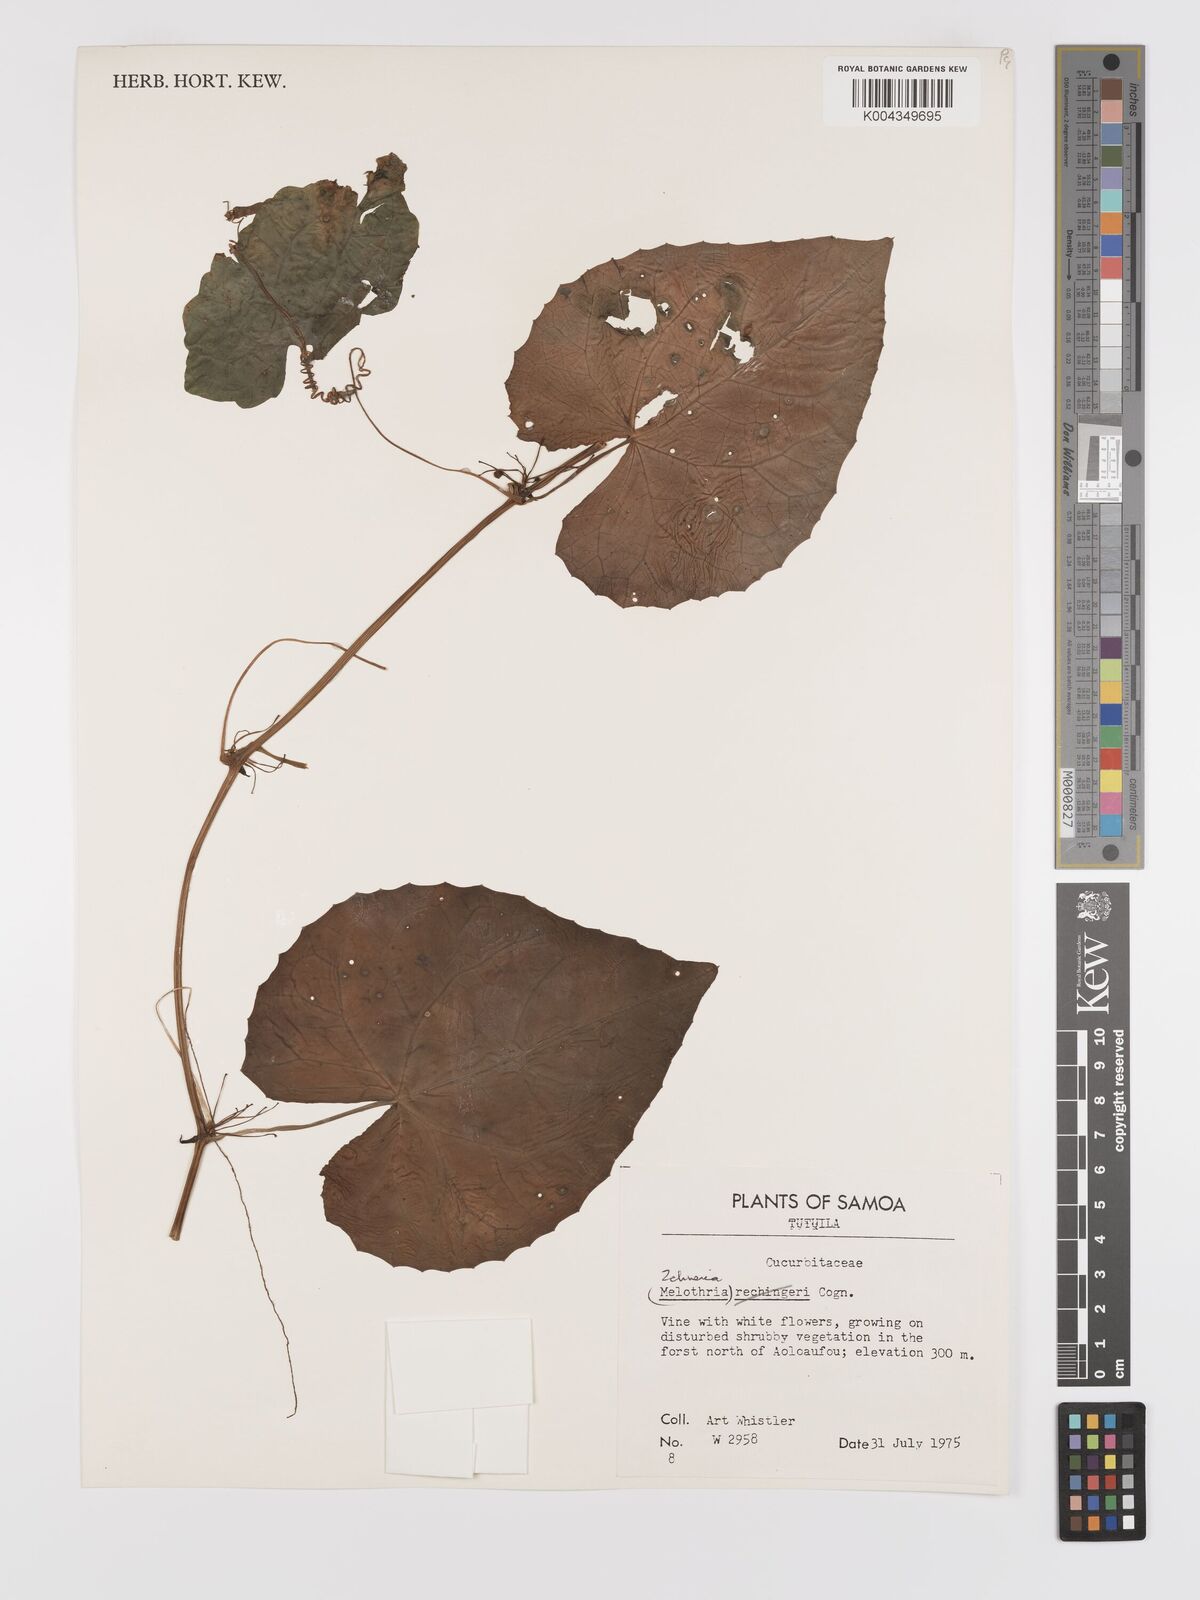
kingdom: Plantae
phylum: Tracheophyta
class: Magnoliopsida
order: Cucurbitales
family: Cucurbitaceae
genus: Zehneria
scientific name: Zehneria
